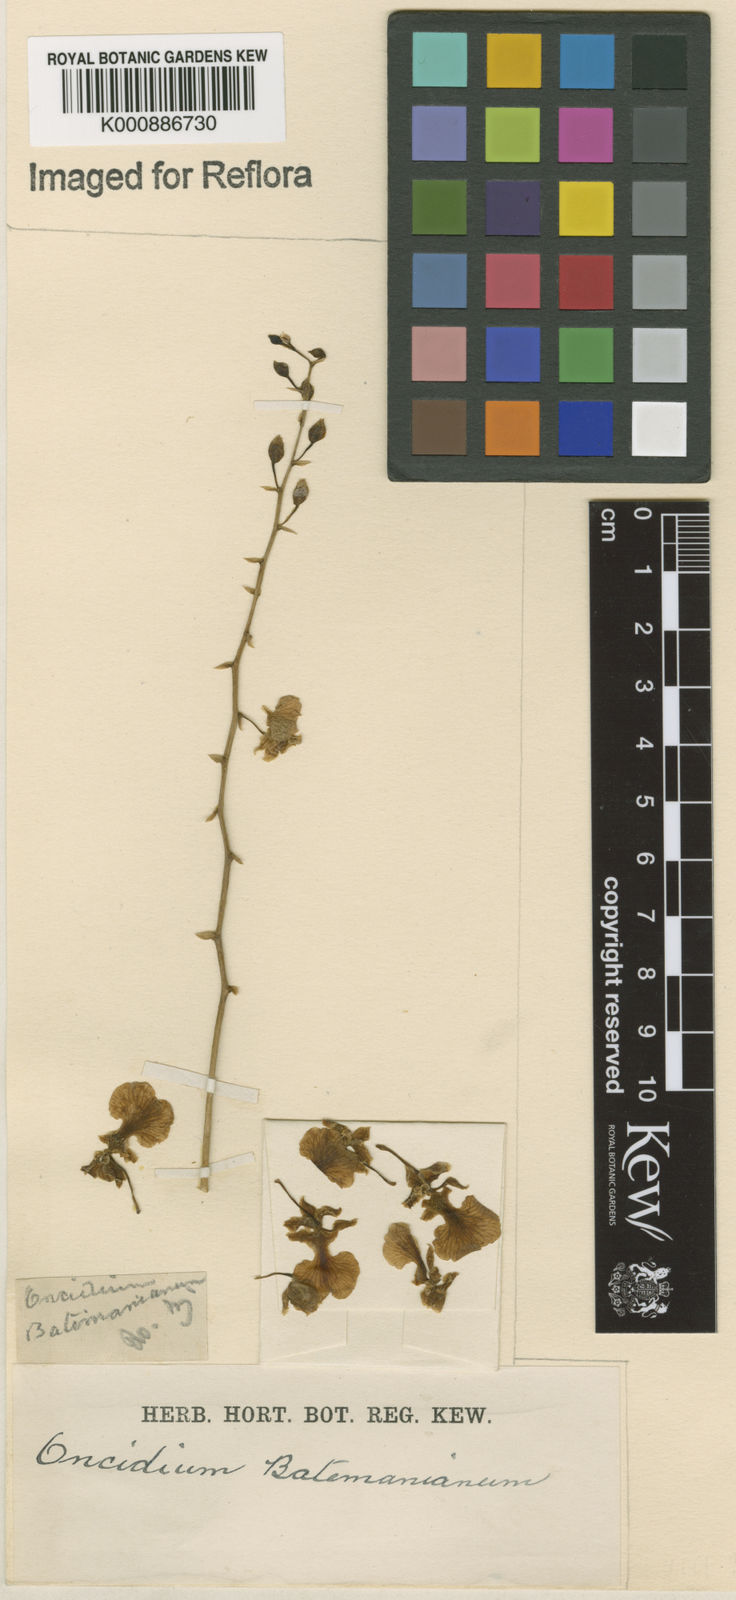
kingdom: Plantae
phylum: Tracheophyta
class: Liliopsida
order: Asparagales
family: Orchidaceae
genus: Gomesa
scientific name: Gomesa ramosa
